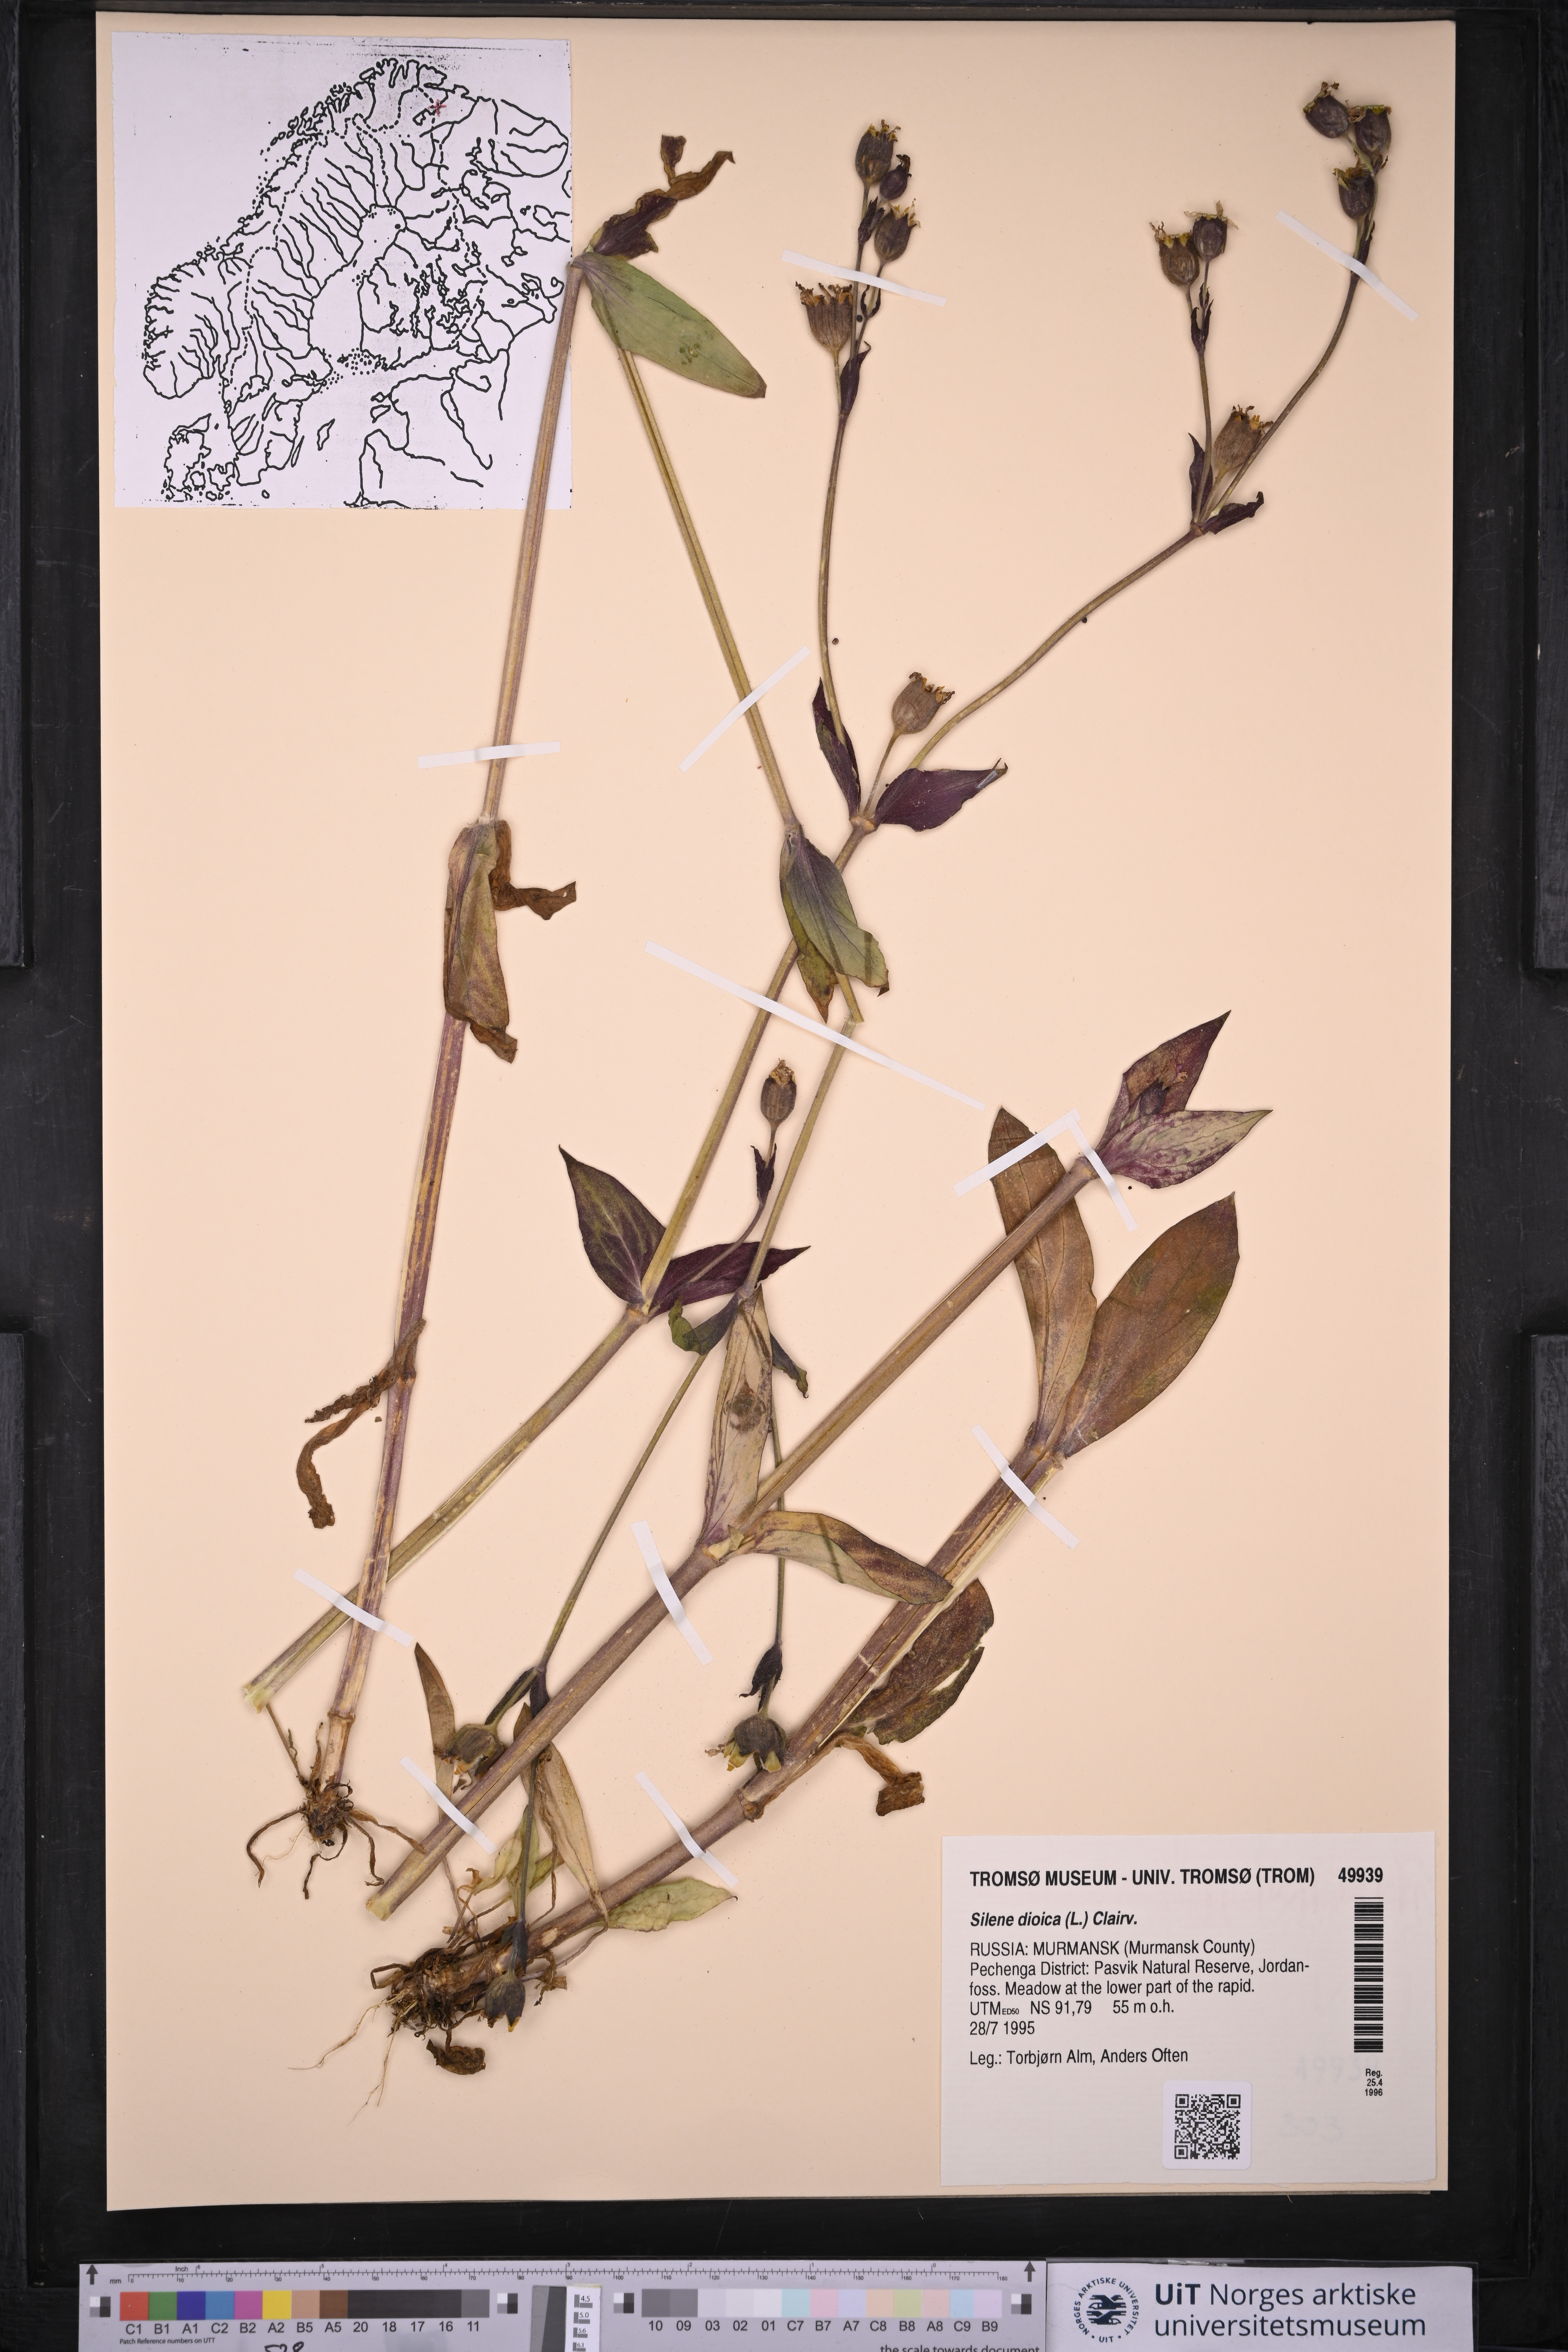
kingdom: Plantae
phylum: Tracheophyta
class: Magnoliopsida
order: Caryophyllales
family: Caryophyllaceae
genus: Silene
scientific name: Silene dioica
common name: Red campion
